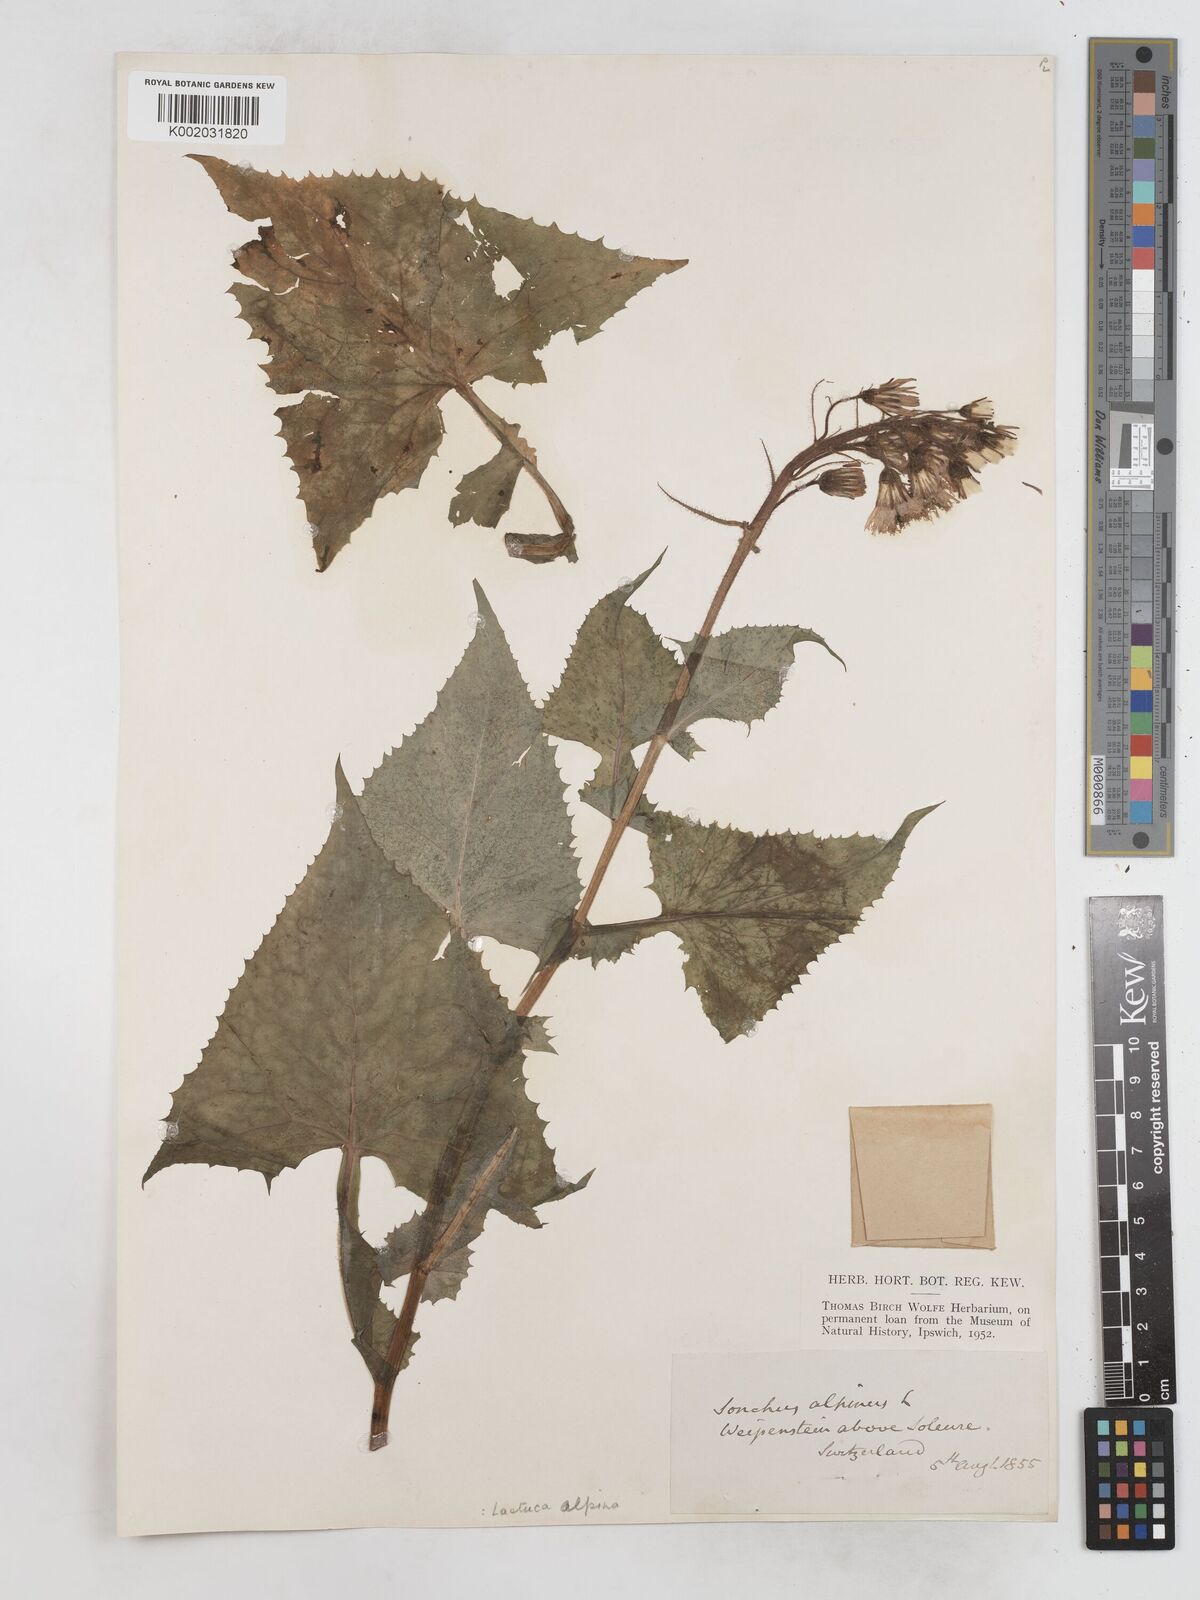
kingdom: Plantae
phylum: Tracheophyta
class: Magnoliopsida
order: Asterales
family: Asteraceae
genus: Cicerbita
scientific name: Cicerbita alpina
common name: Alpine blue-sow-thistle
